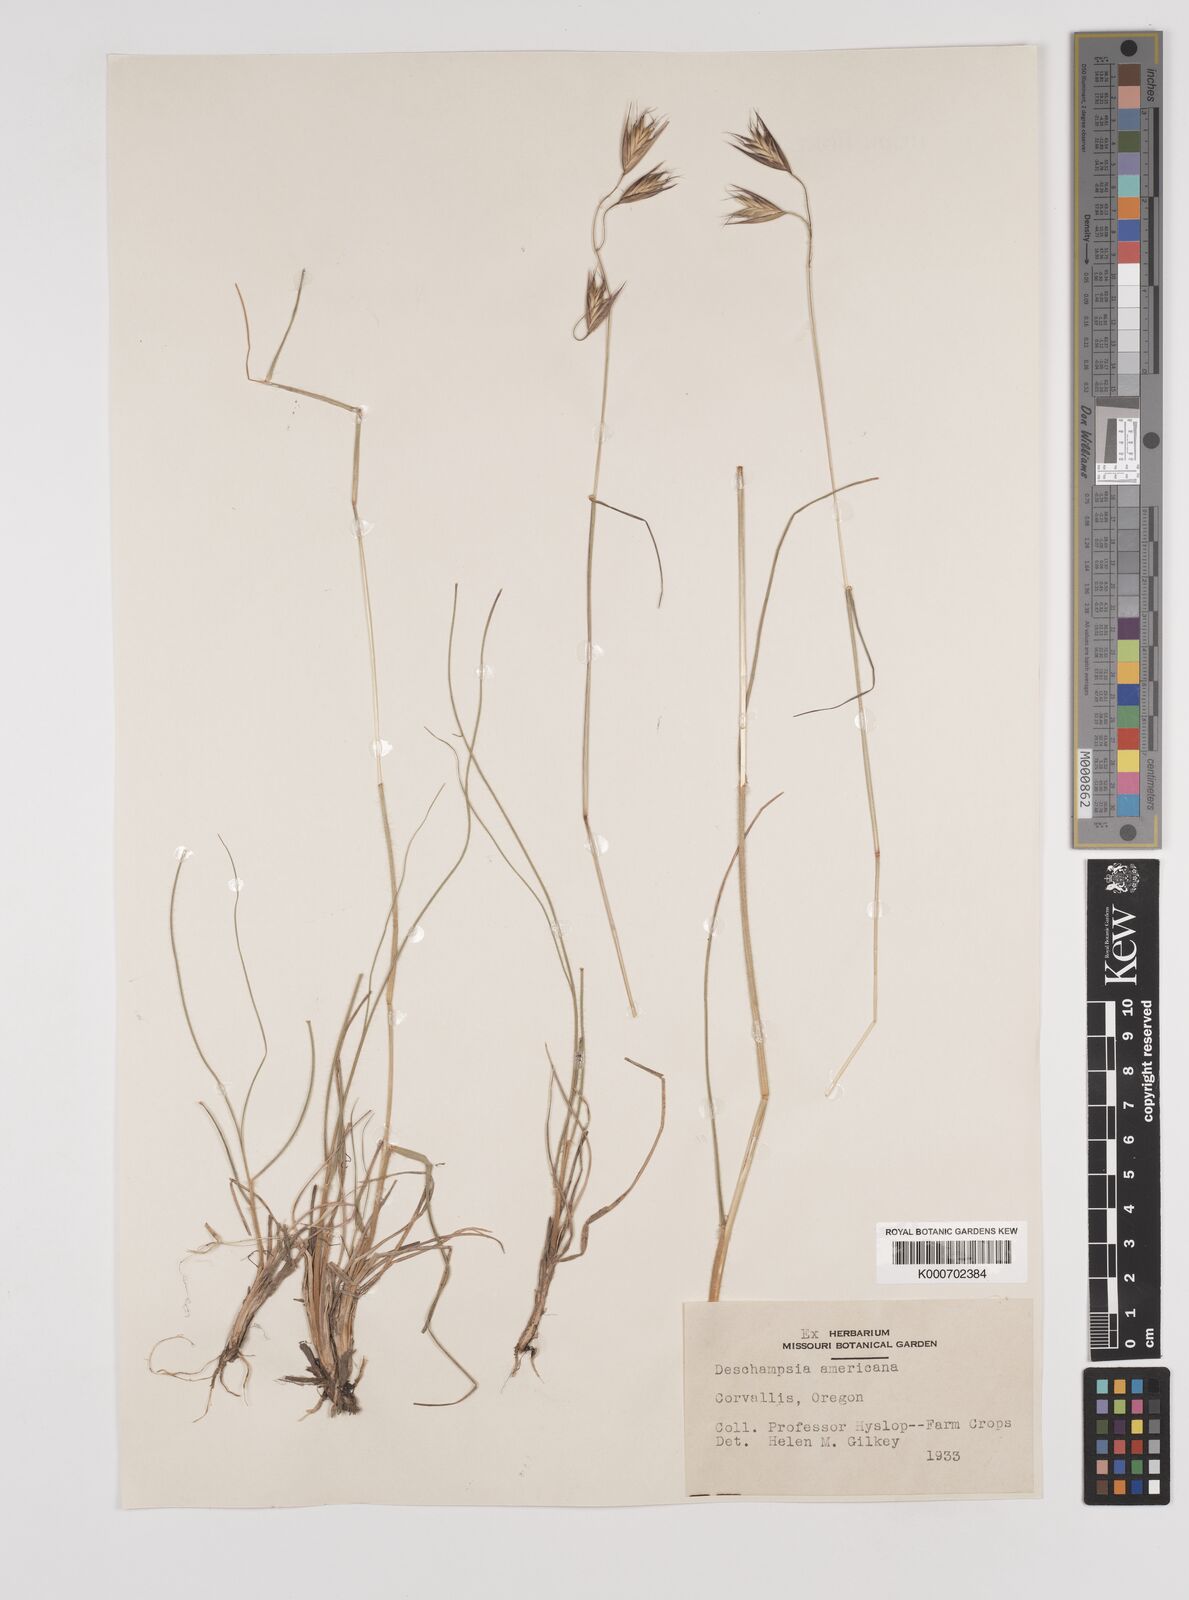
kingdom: Plantae
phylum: Tracheophyta
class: Liliopsida
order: Poales
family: Poaceae
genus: Danthonia
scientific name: Danthonia californica
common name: California oat grass
